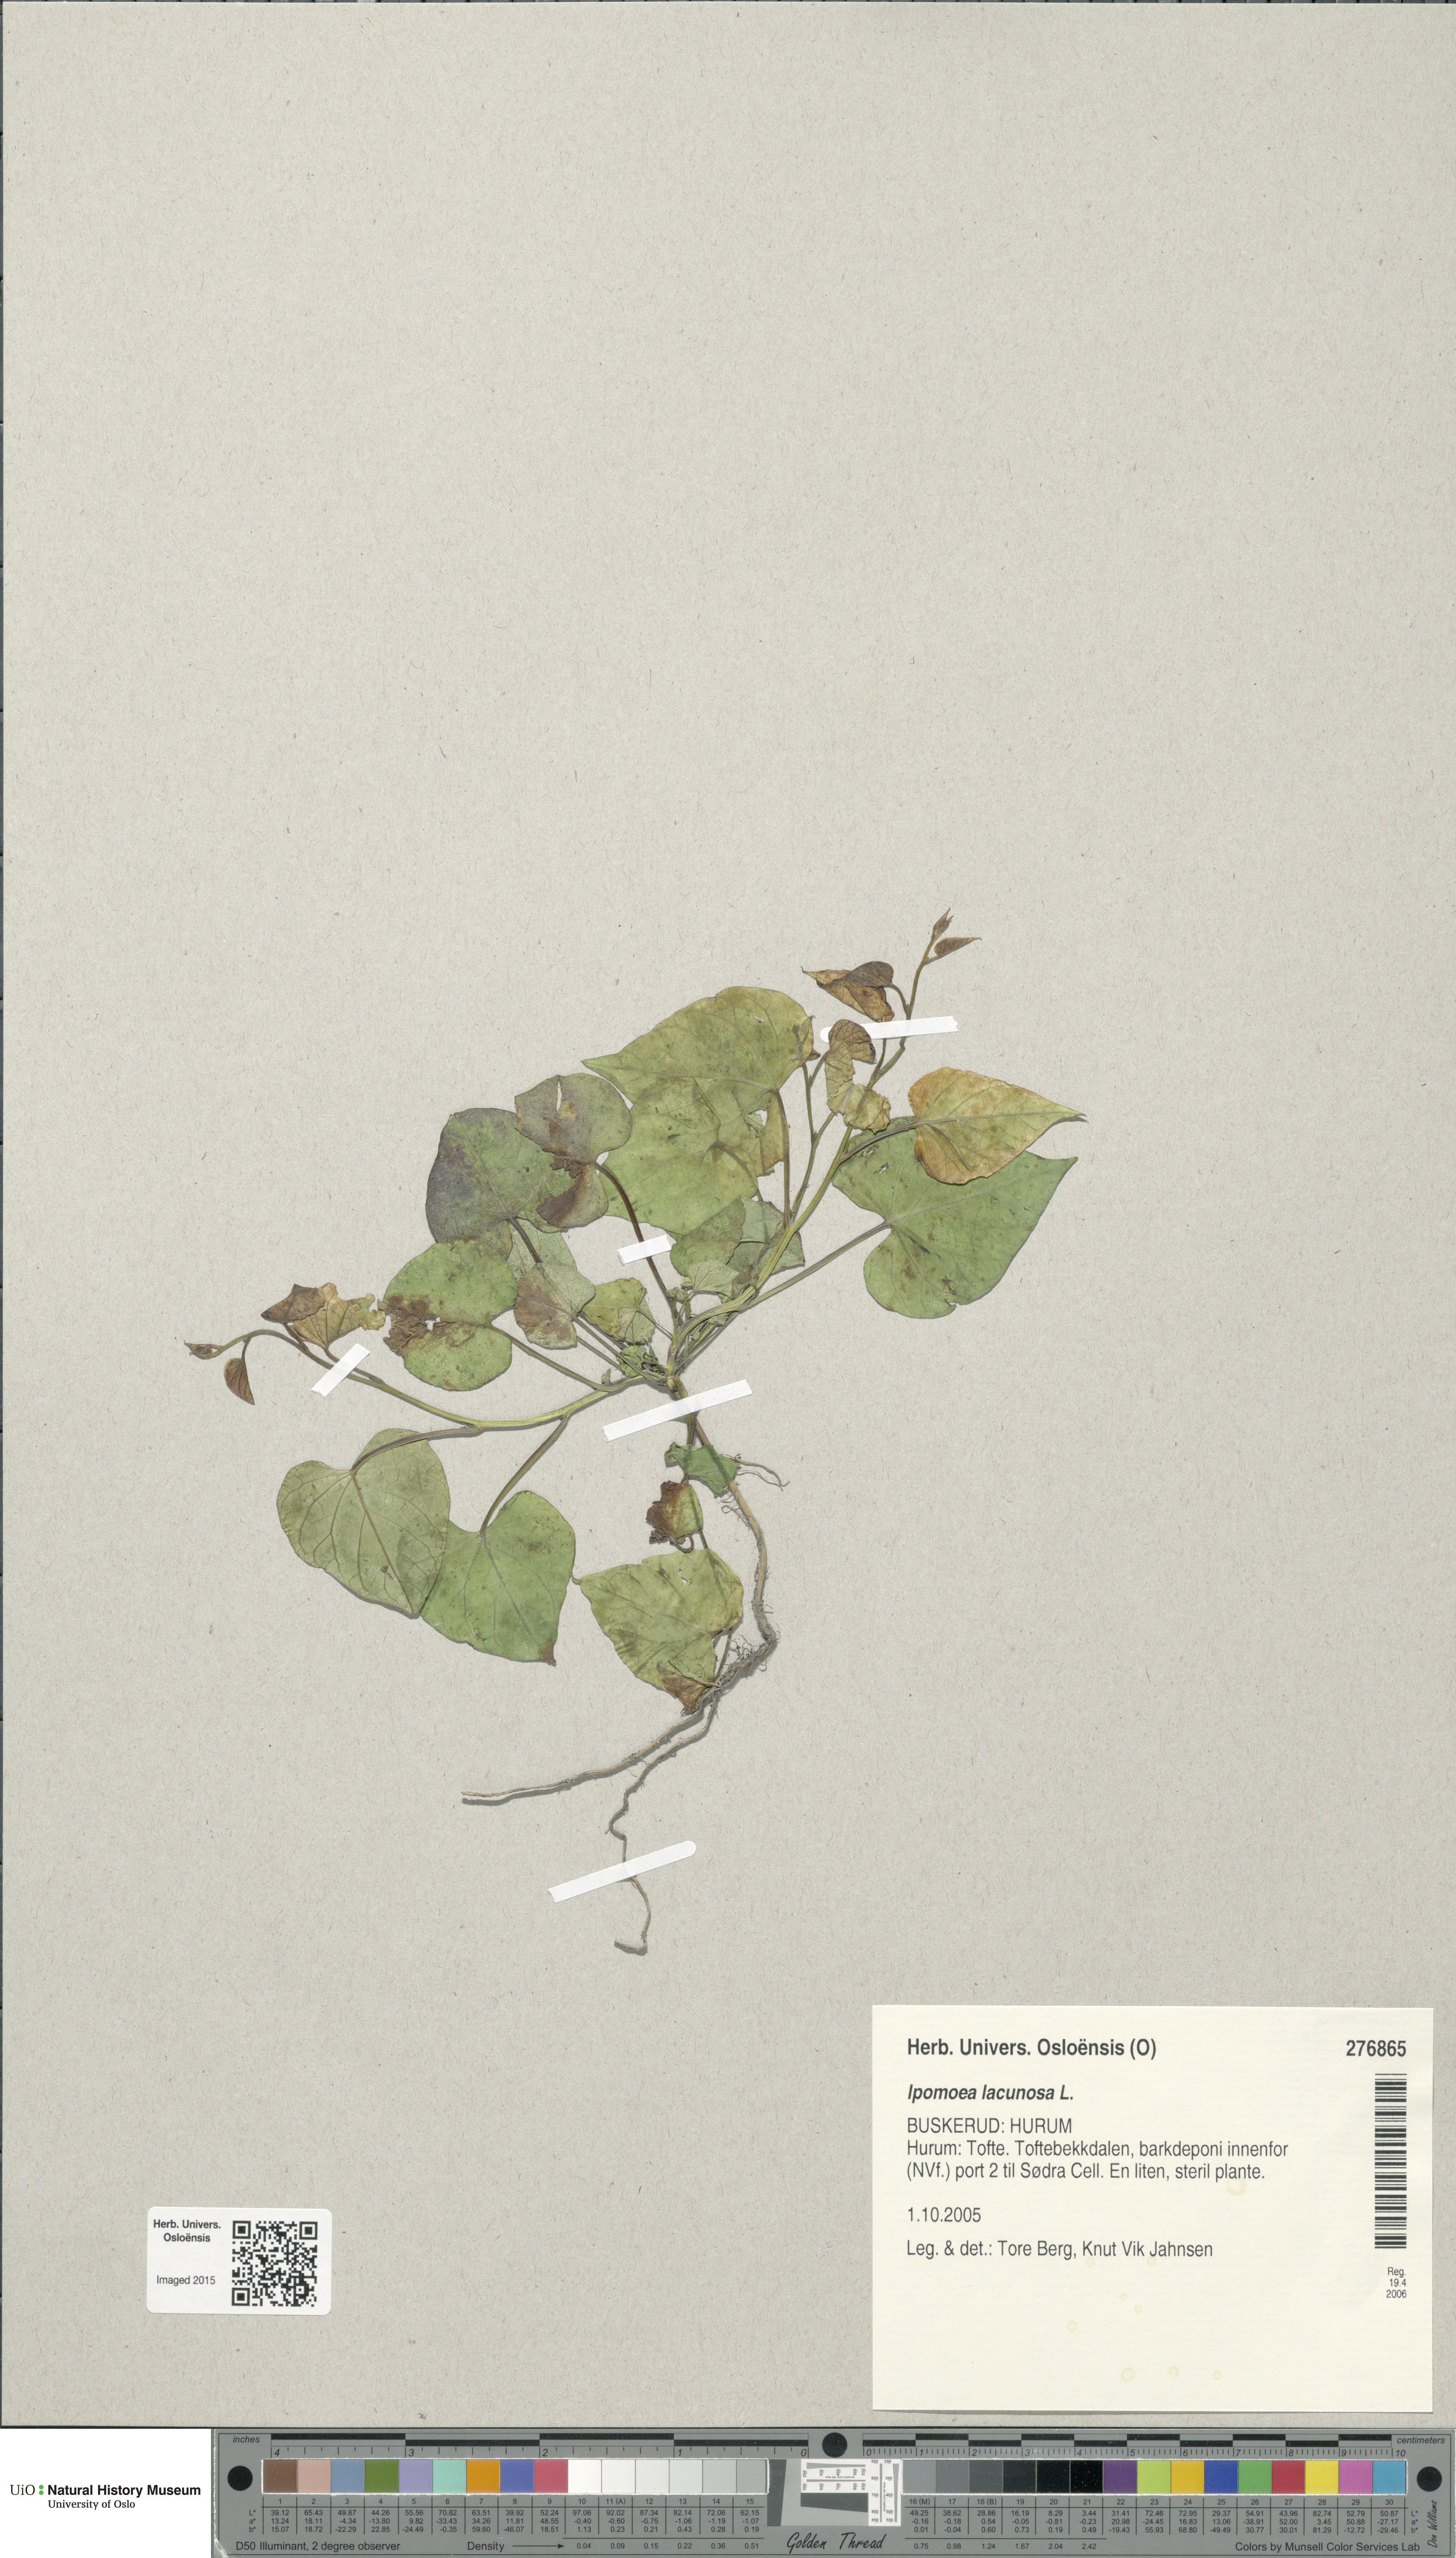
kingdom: Plantae
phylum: Tracheophyta
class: Magnoliopsida
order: Solanales
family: Convolvulaceae
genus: Ipomoea
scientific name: Ipomoea lacunosa
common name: White morning-glory
